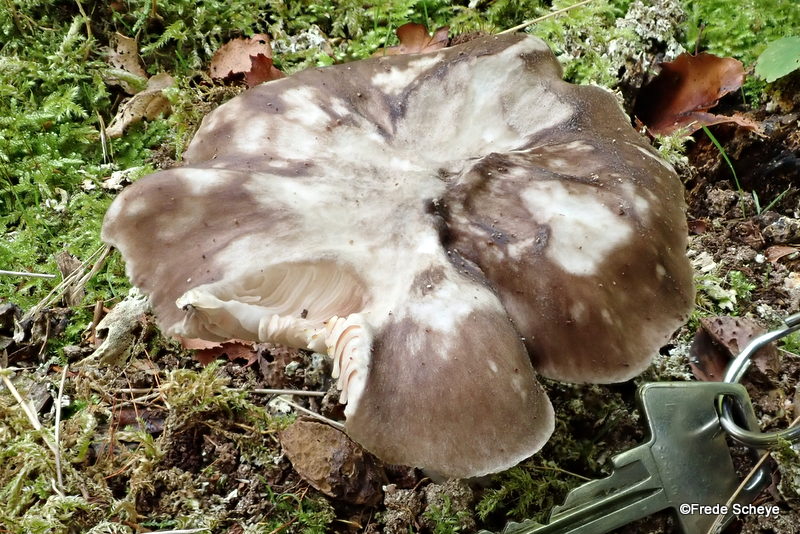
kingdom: Fungi
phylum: Basidiomycota
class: Agaricomycetes
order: Agaricales
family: Pluteaceae
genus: Pluteus
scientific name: Pluteus cervinus
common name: sodfarvet skærmhat
